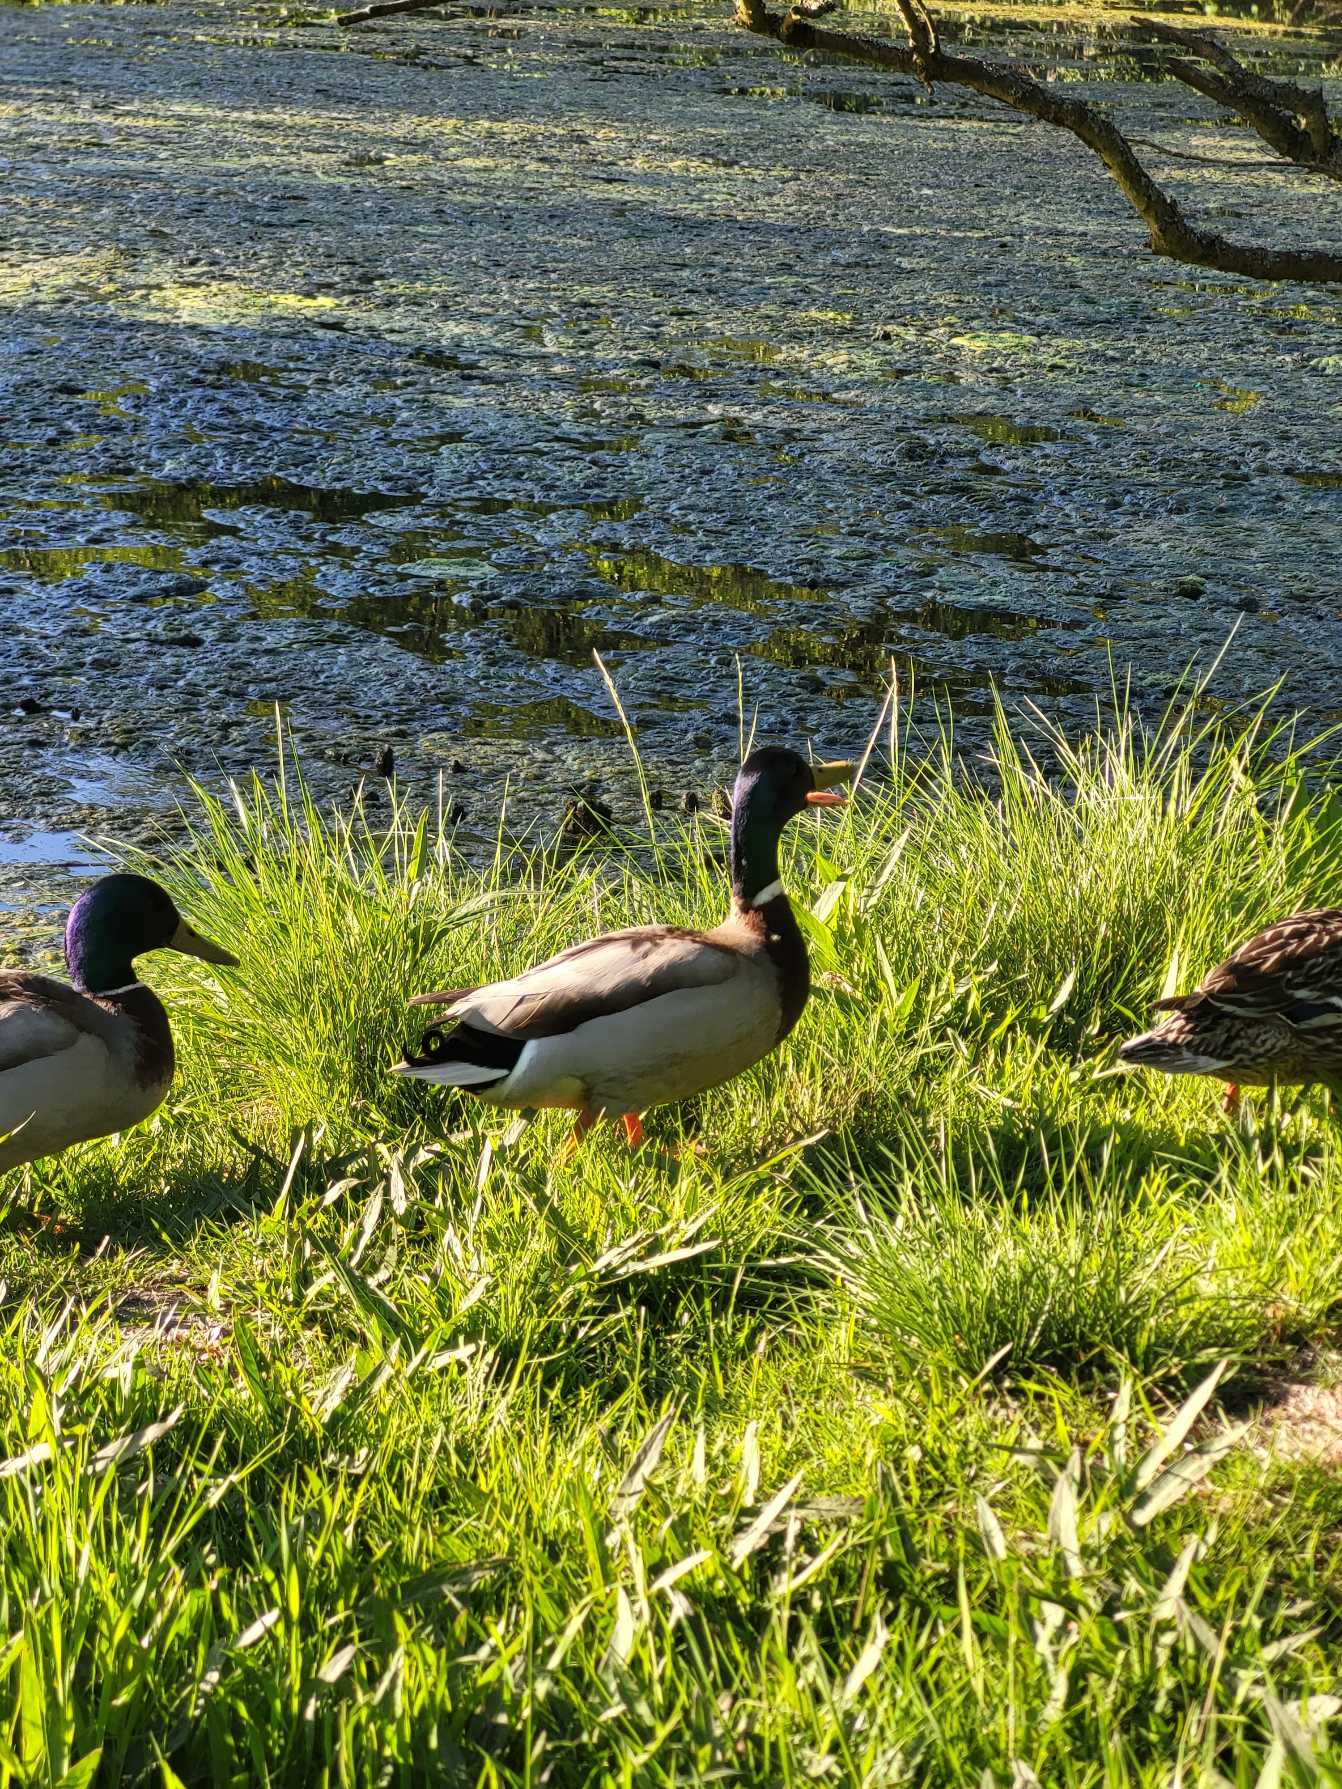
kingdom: Animalia
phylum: Chordata
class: Aves
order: Anseriformes
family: Anatidae
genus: Anas
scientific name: Anas platyrhynchos
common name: Gråand
